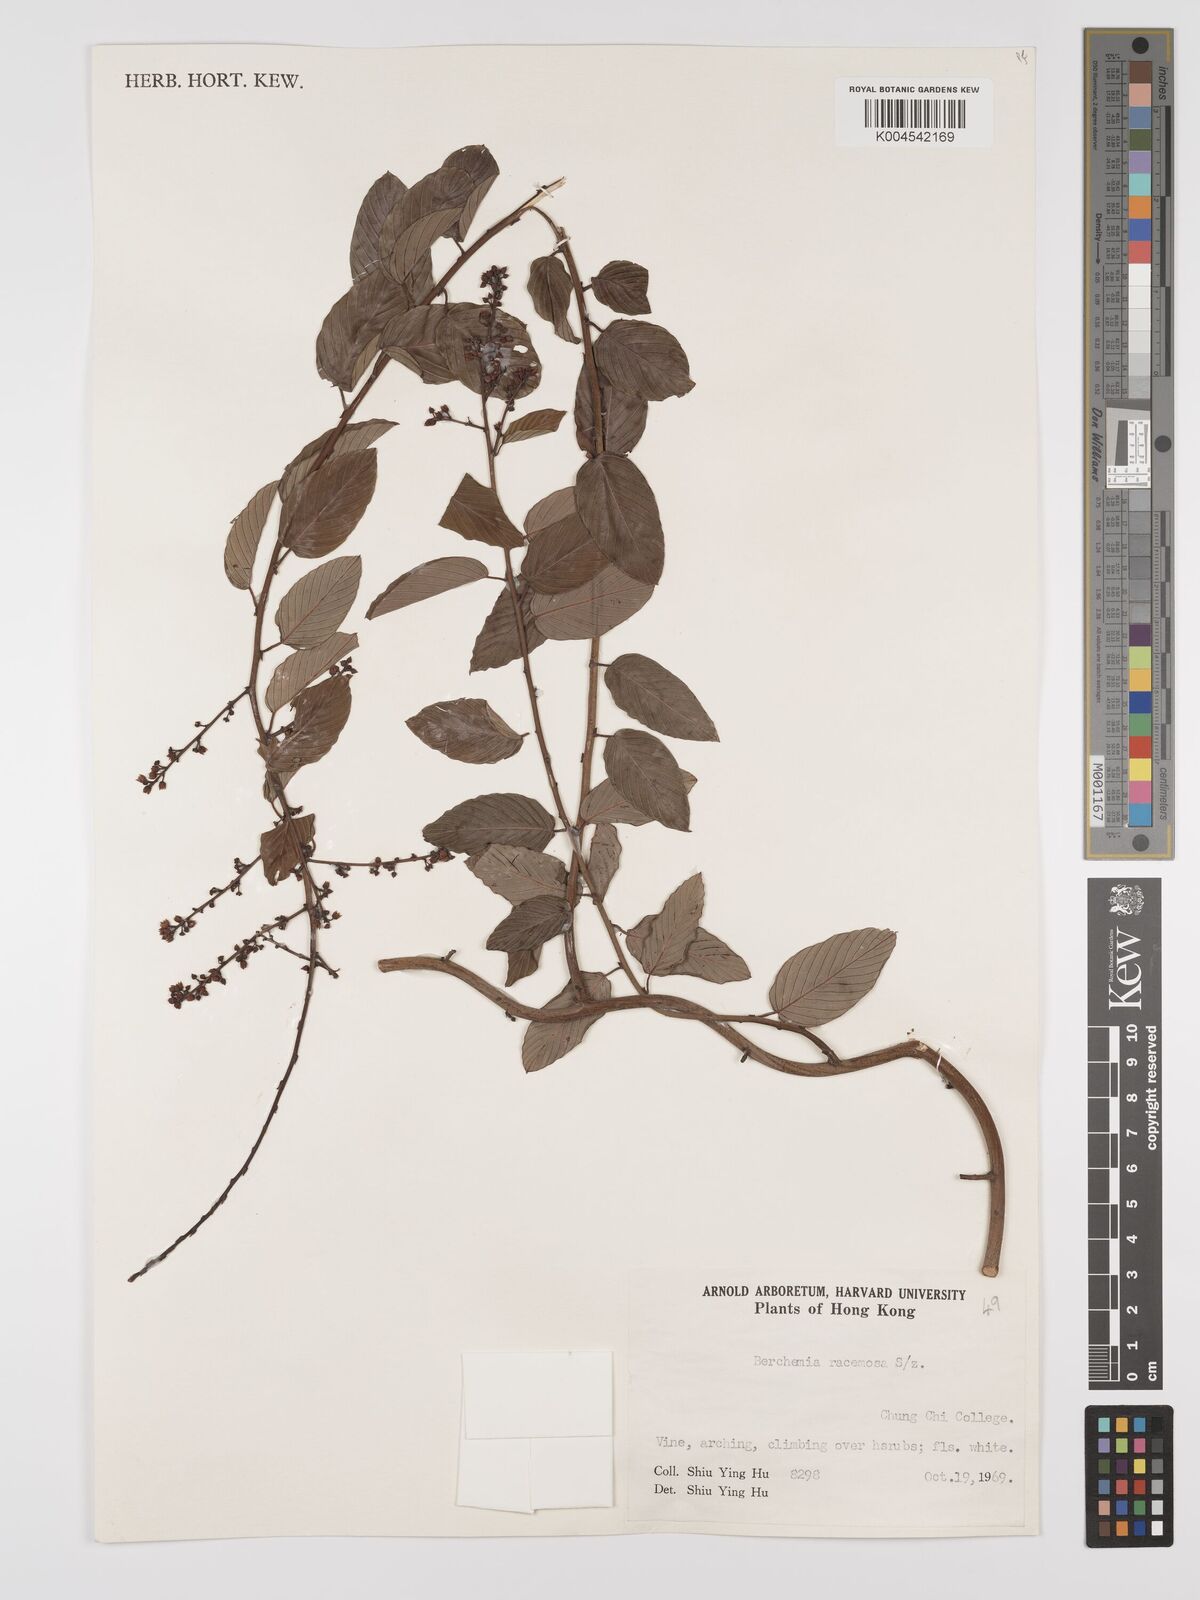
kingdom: Plantae
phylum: Tracheophyta
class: Magnoliopsida
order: Rosales
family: Rhamnaceae
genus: Berchemia
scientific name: Berchemia floribunda
